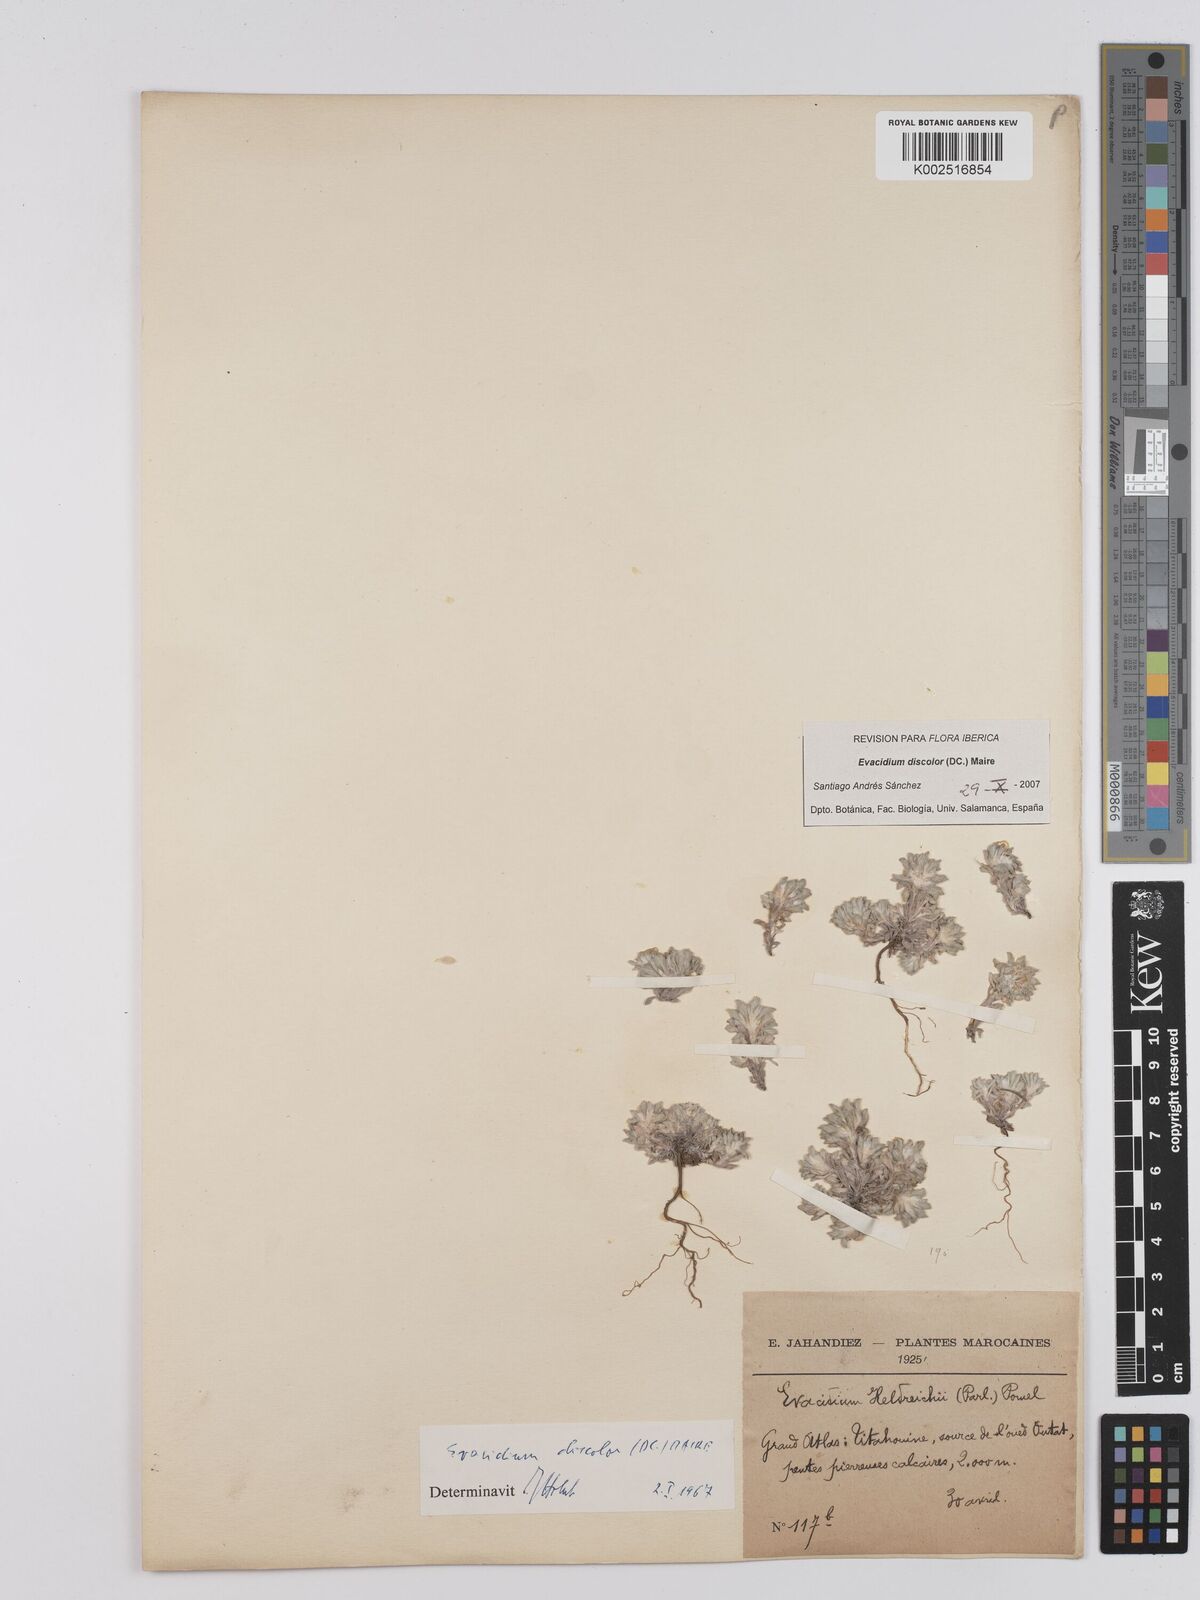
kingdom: Plantae
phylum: Tracheophyta
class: Magnoliopsida
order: Asterales
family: Asteraceae
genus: Filago
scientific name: Filago discolor
